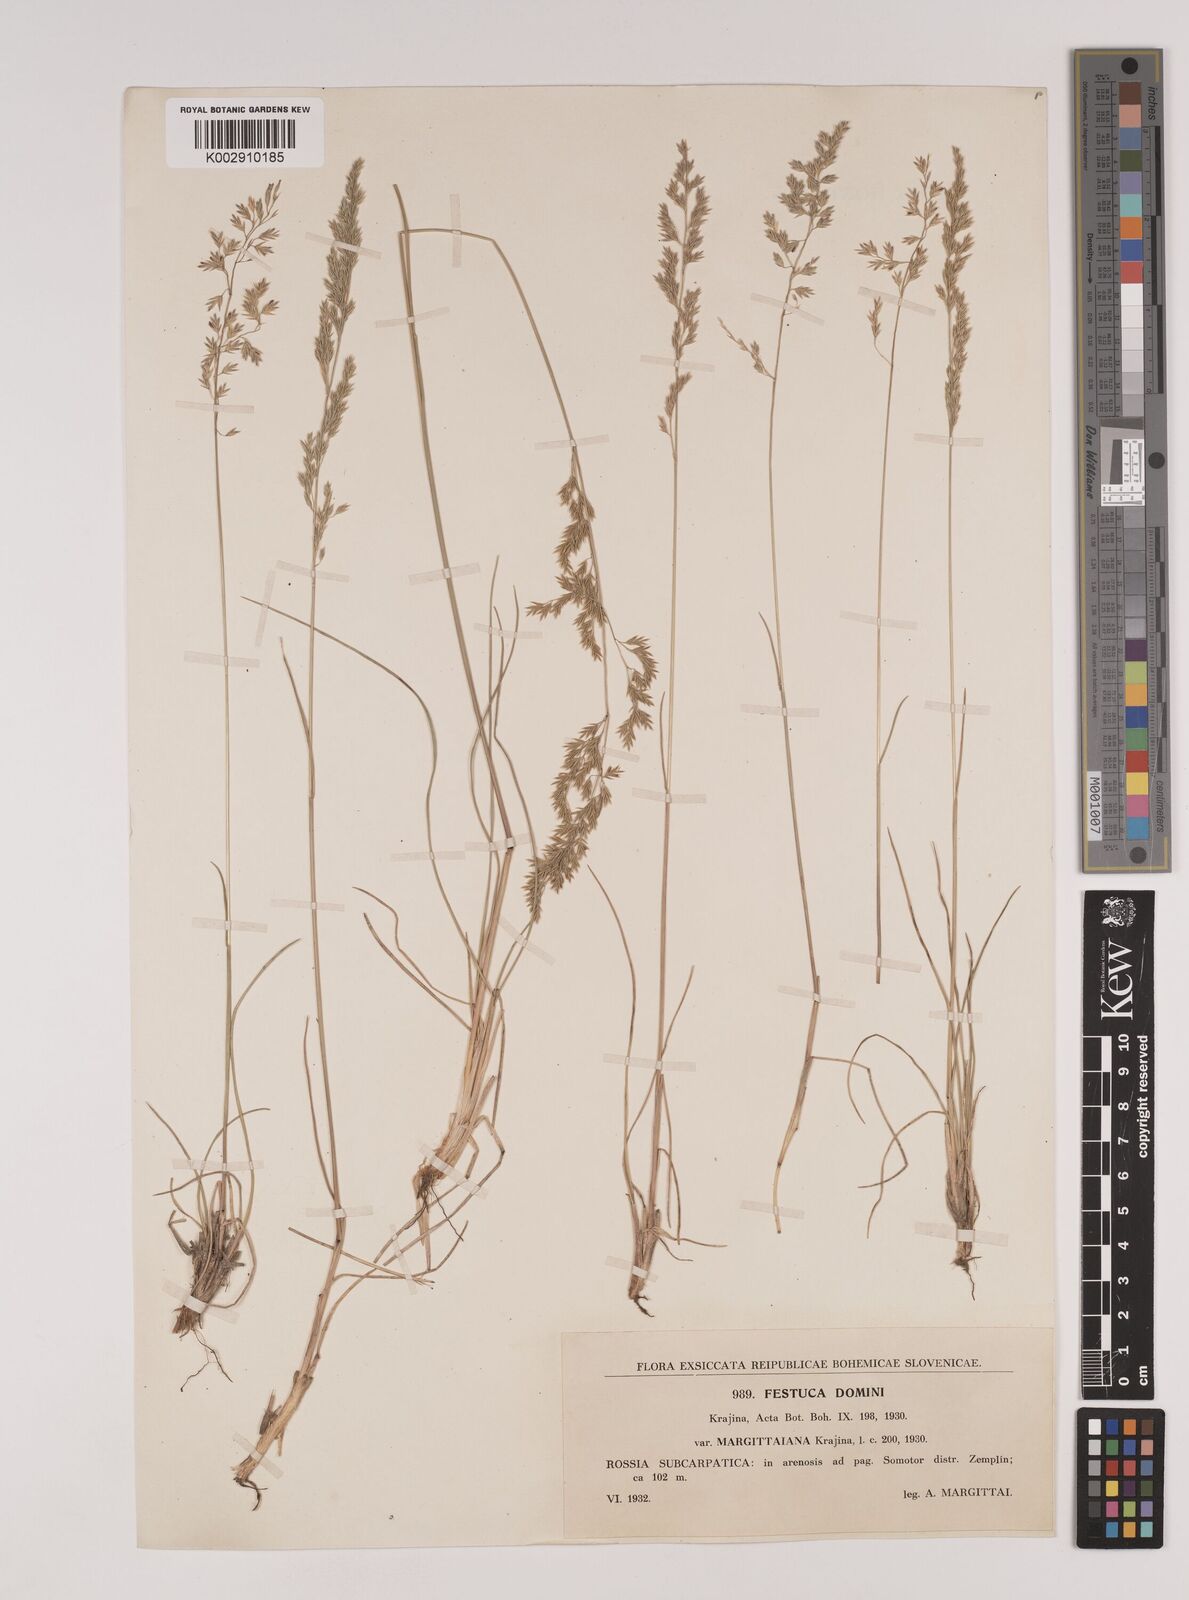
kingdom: Plantae
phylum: Tracheophyta
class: Liliopsida
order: Poales
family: Poaceae
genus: Festuca
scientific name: Festuca versicolor
